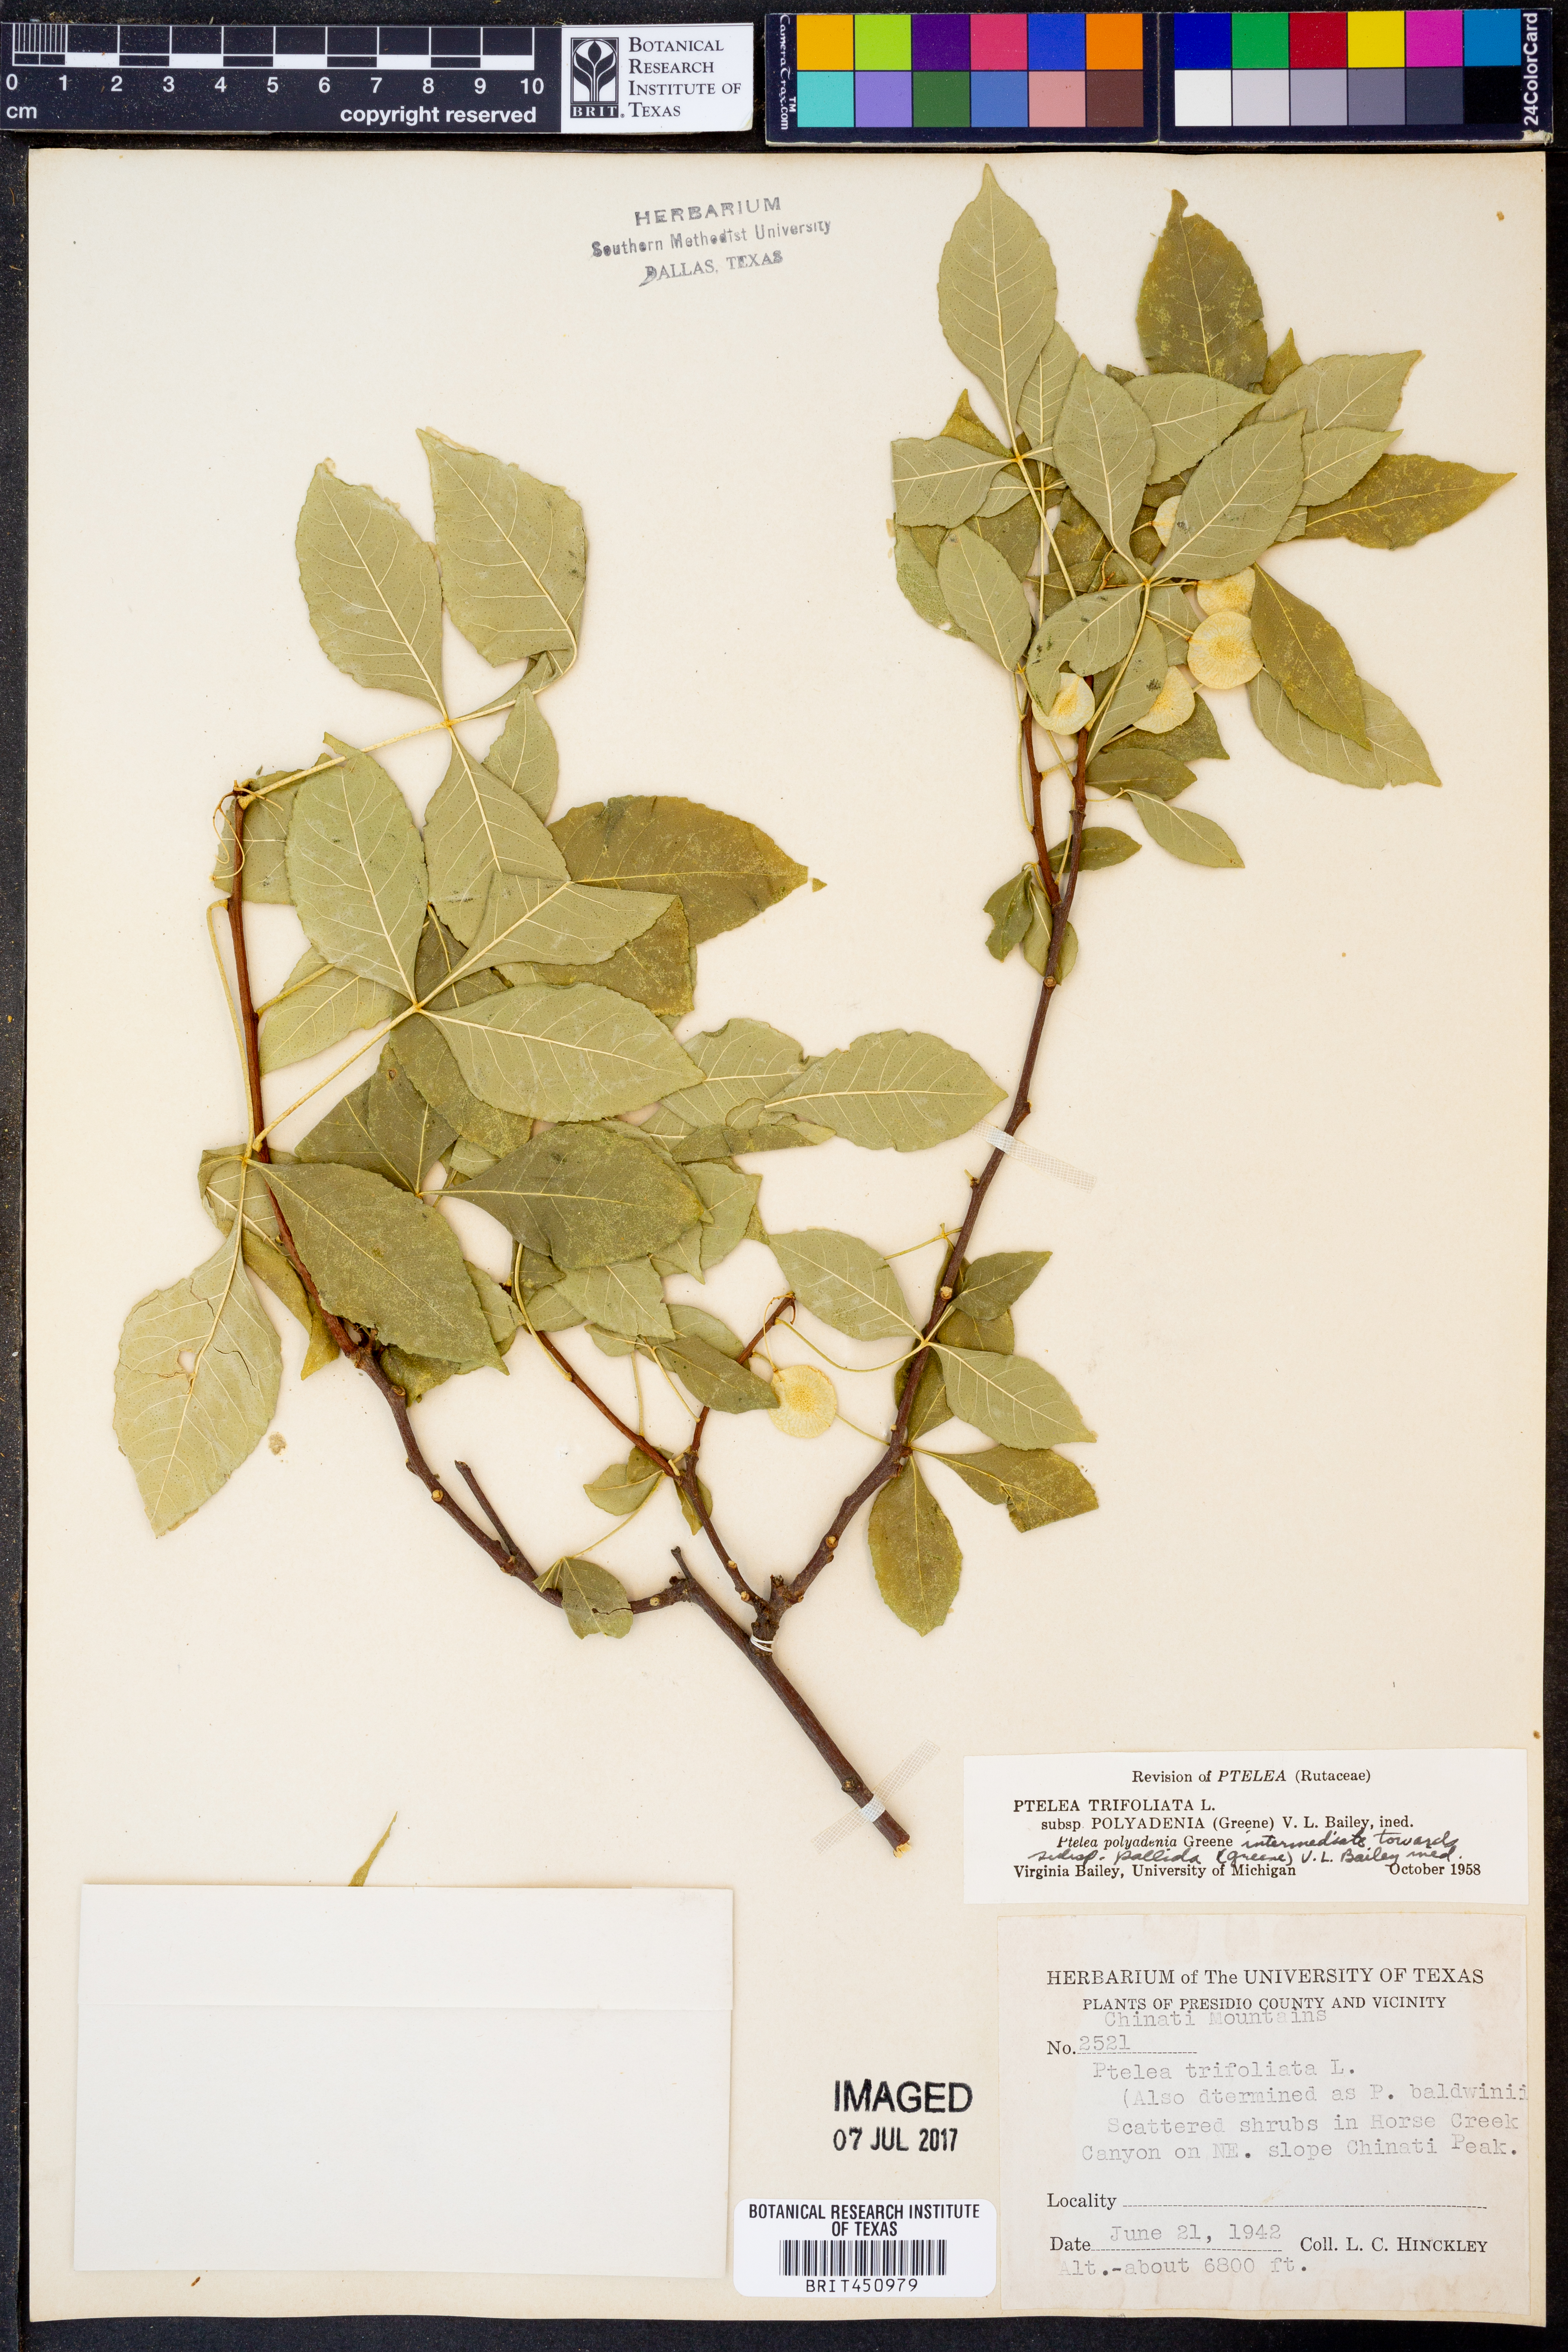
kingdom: Plantae
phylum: Tracheophyta
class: Magnoliopsida
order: Sapindales
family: Rutaceae
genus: Ptelea
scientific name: Ptelea trifoliata
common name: Common hop-tree
